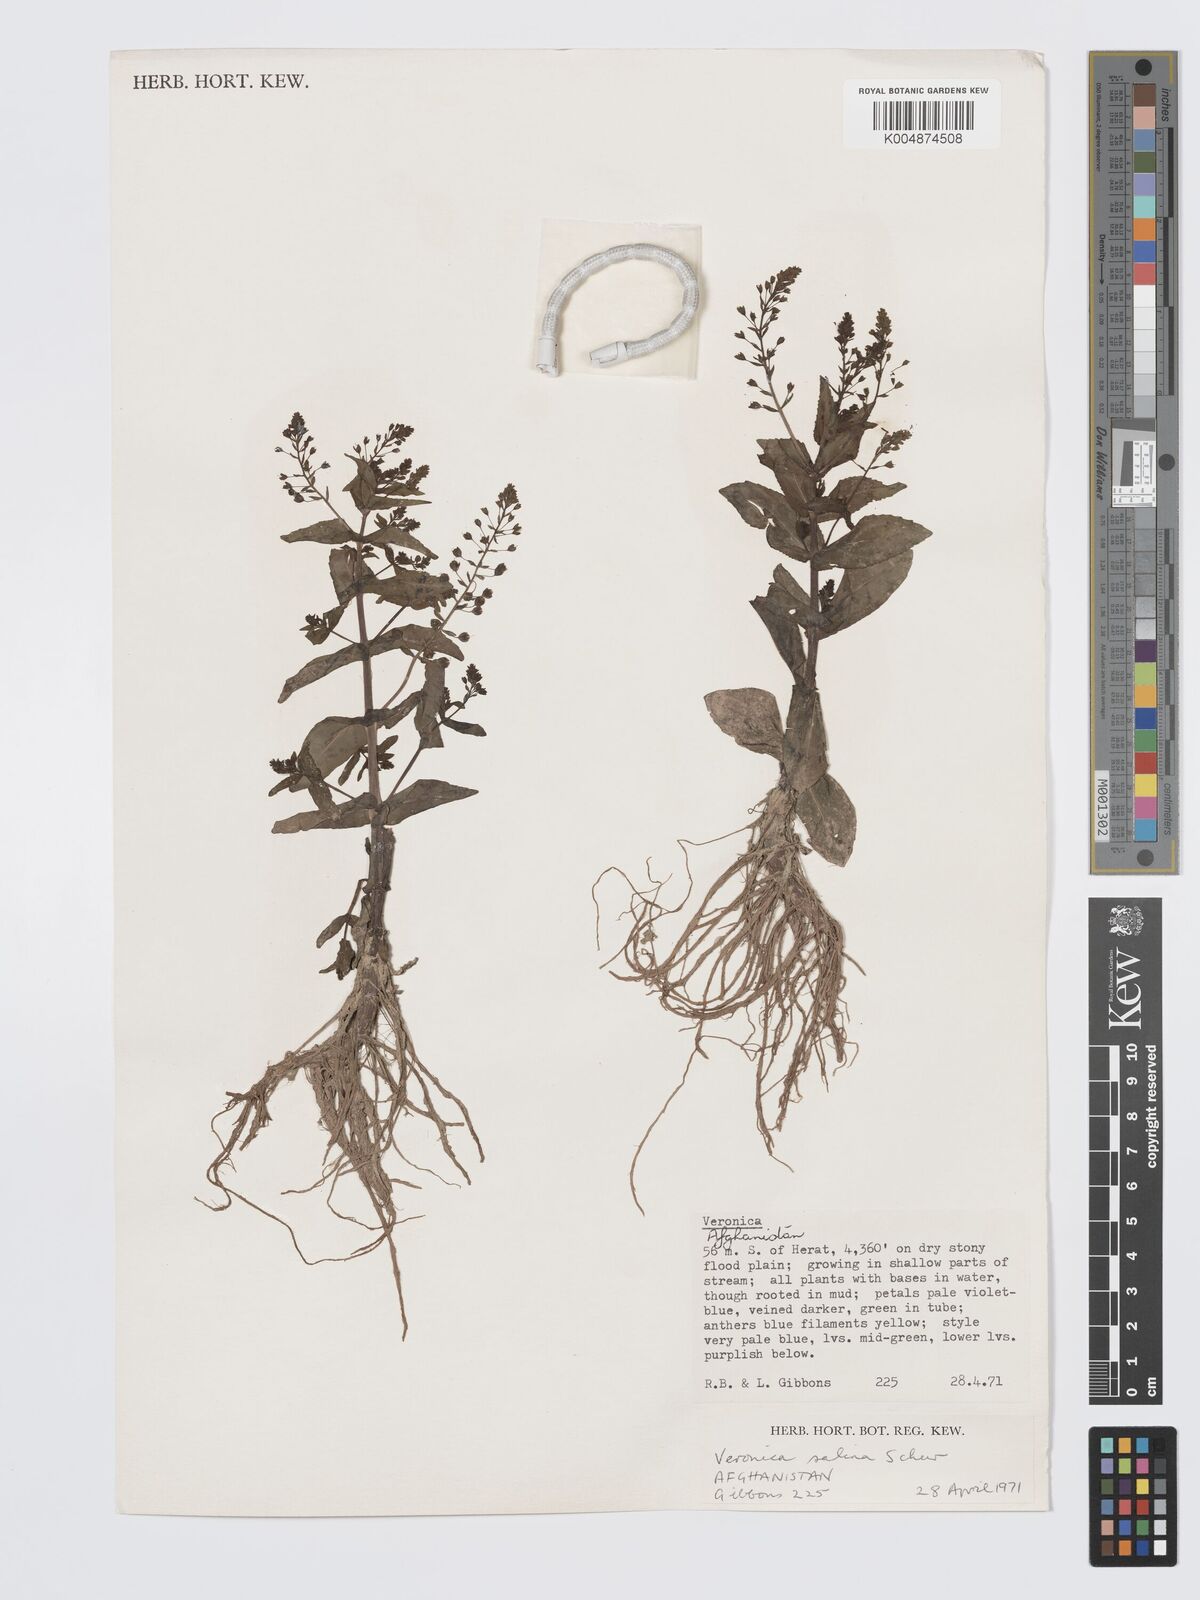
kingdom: Plantae
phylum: Tracheophyta
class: Magnoliopsida
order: Lamiales
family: Plantaginaceae
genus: Veronica
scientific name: Veronica anagalloides
